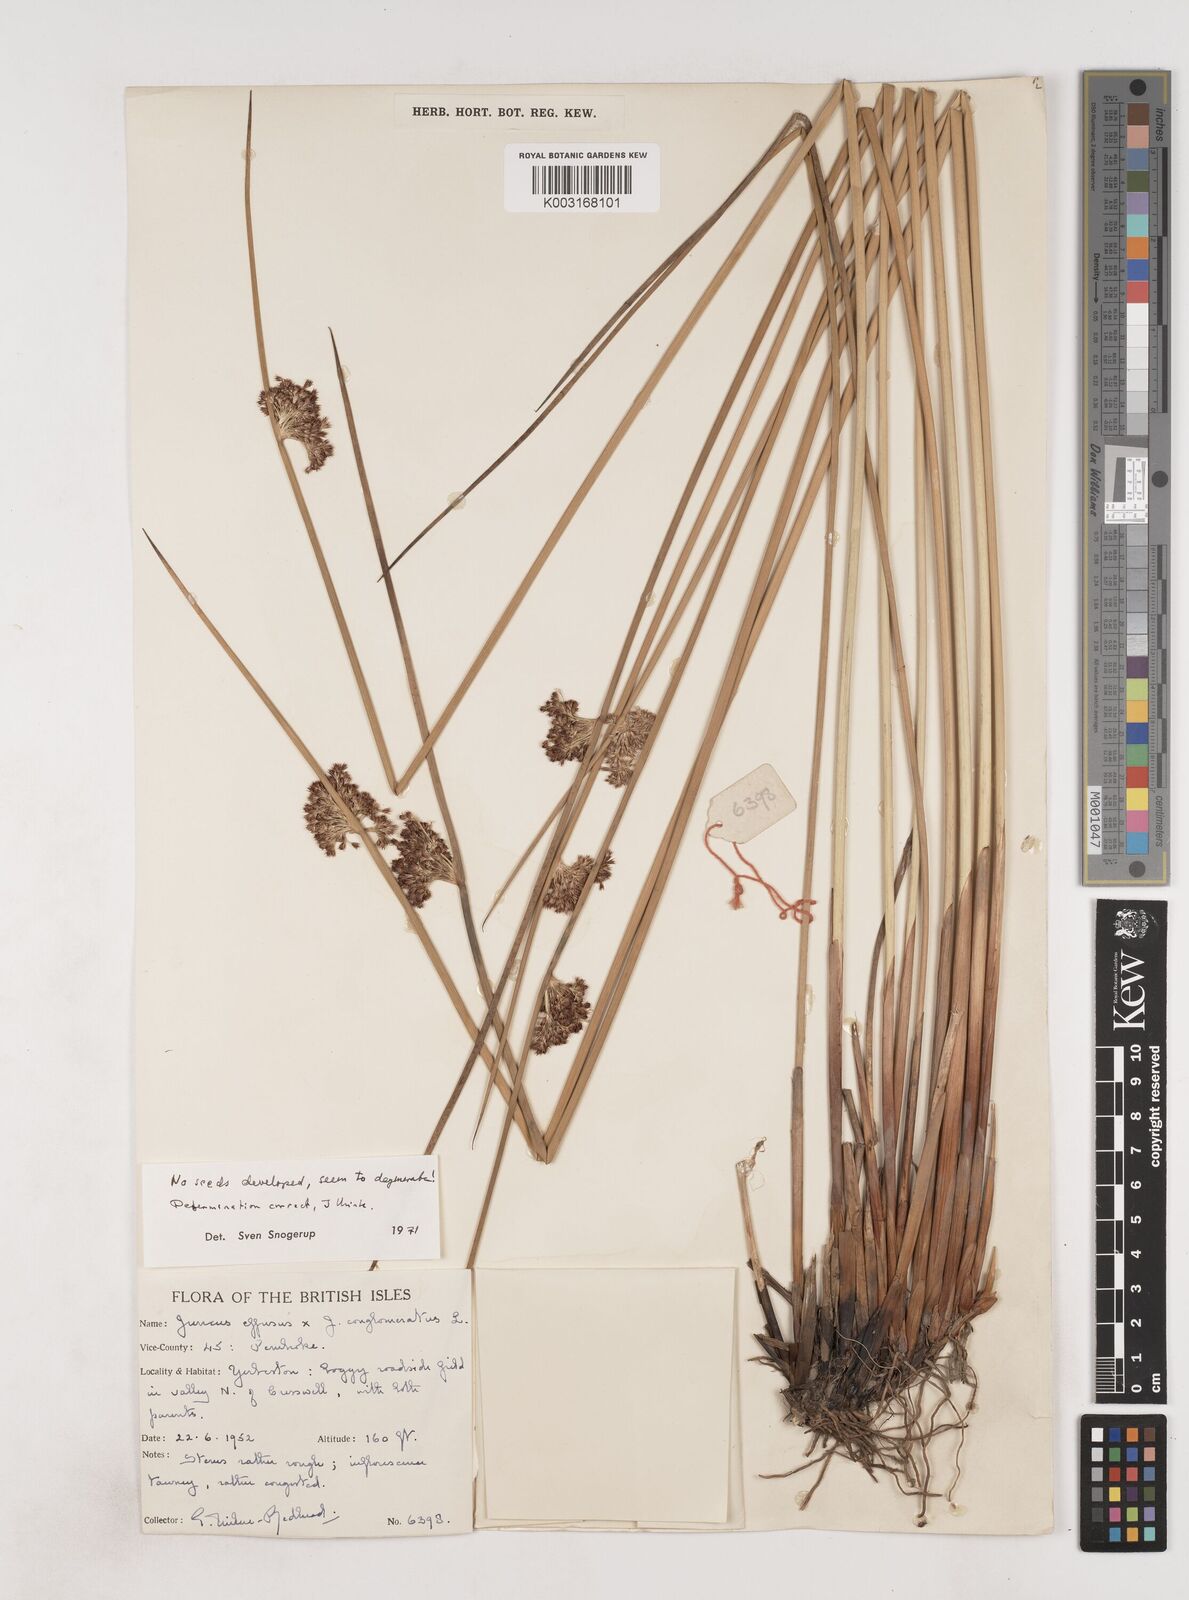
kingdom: Plantae
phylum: Tracheophyta
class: Liliopsida
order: Poales
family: Juncaceae
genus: Juncus
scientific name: Juncus conglomeratus
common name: Compact rush
